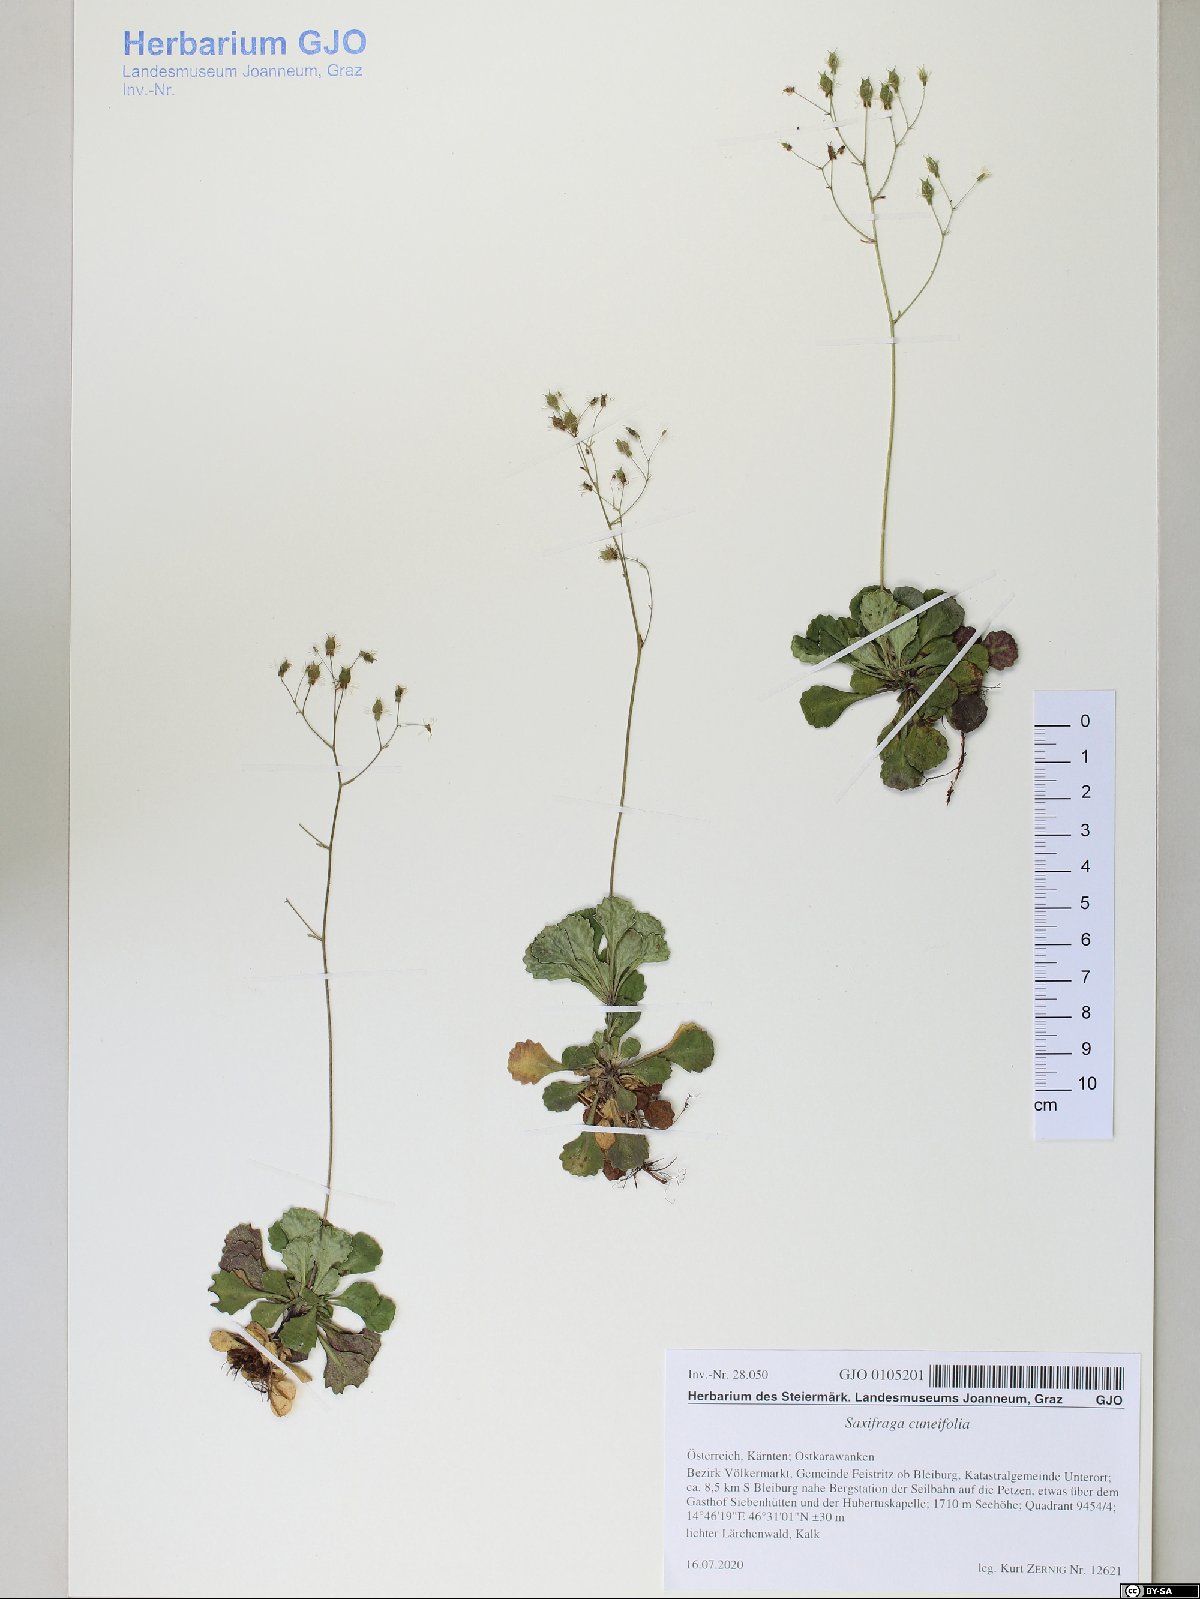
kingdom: Plantae
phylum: Tracheophyta
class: Magnoliopsida
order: Saxifragales
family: Saxifragaceae
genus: Saxifraga
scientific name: Saxifraga cuneifolia
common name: Lesser londonpride
